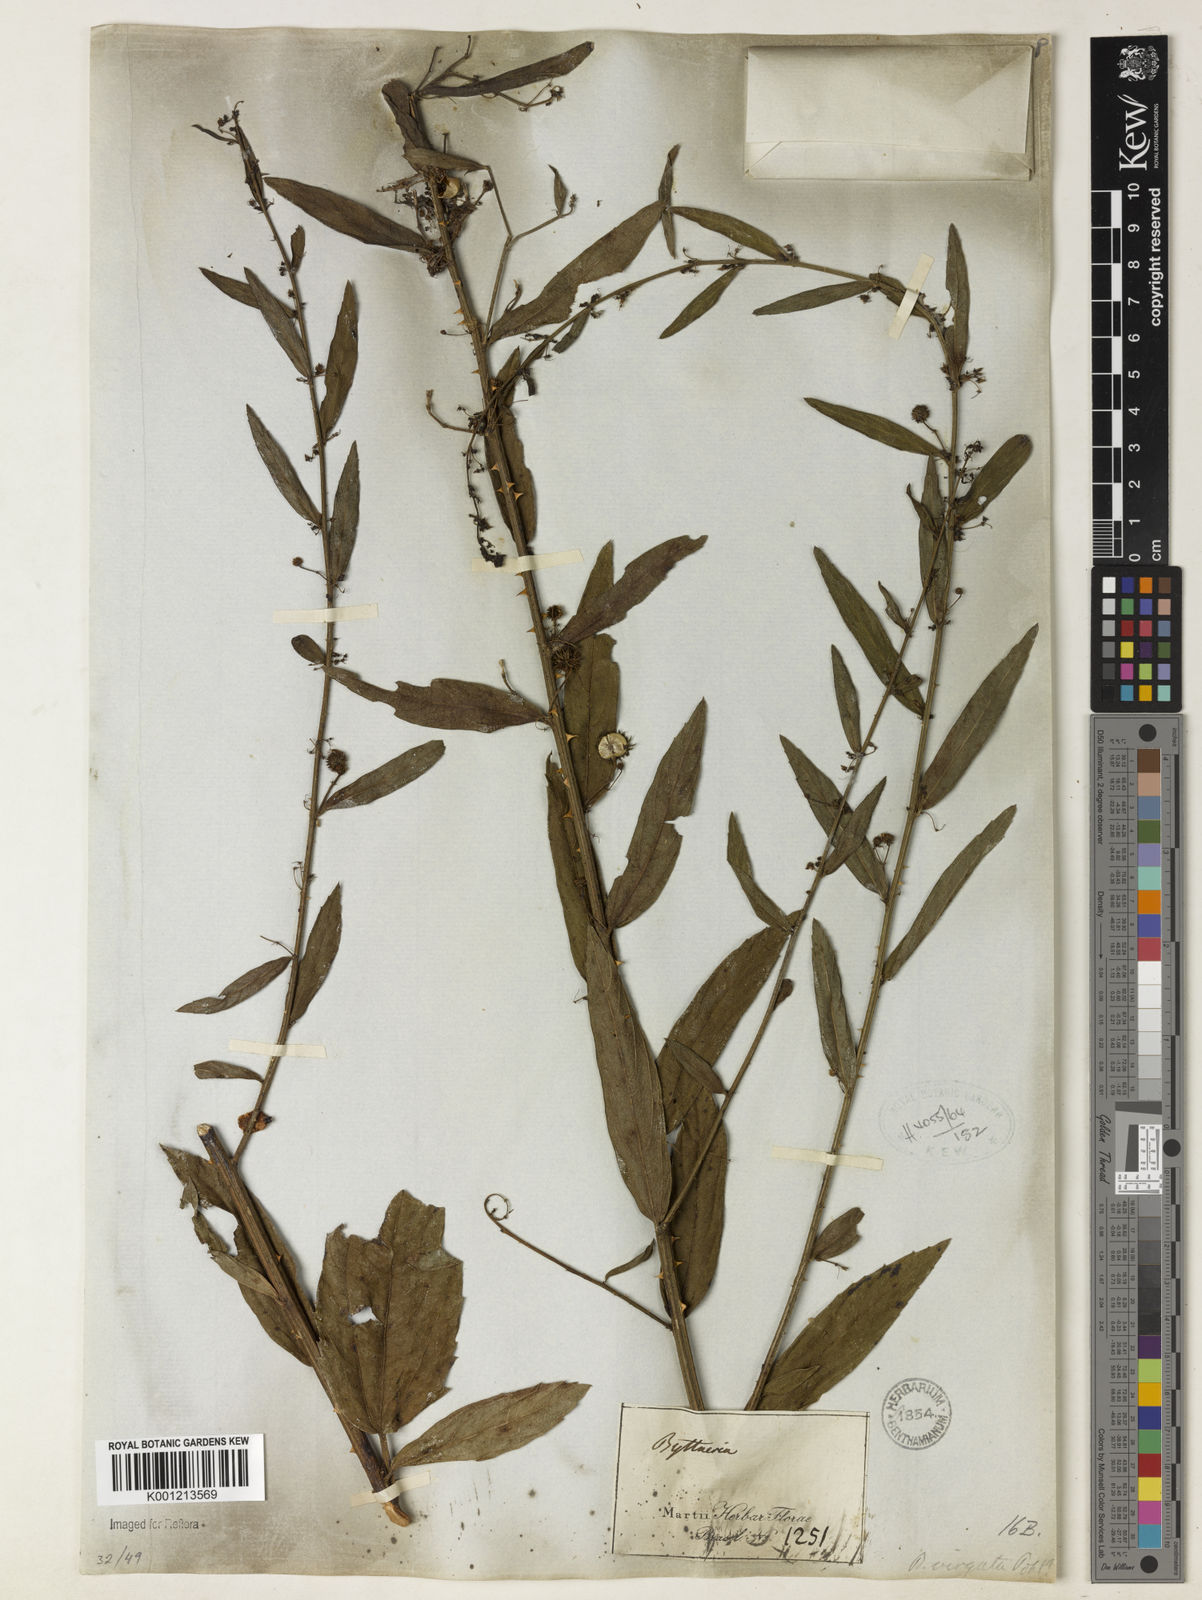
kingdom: Plantae
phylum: Tracheophyta
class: Magnoliopsida
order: Malvales
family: Malvaceae
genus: Byttneria
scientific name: Byttneria
